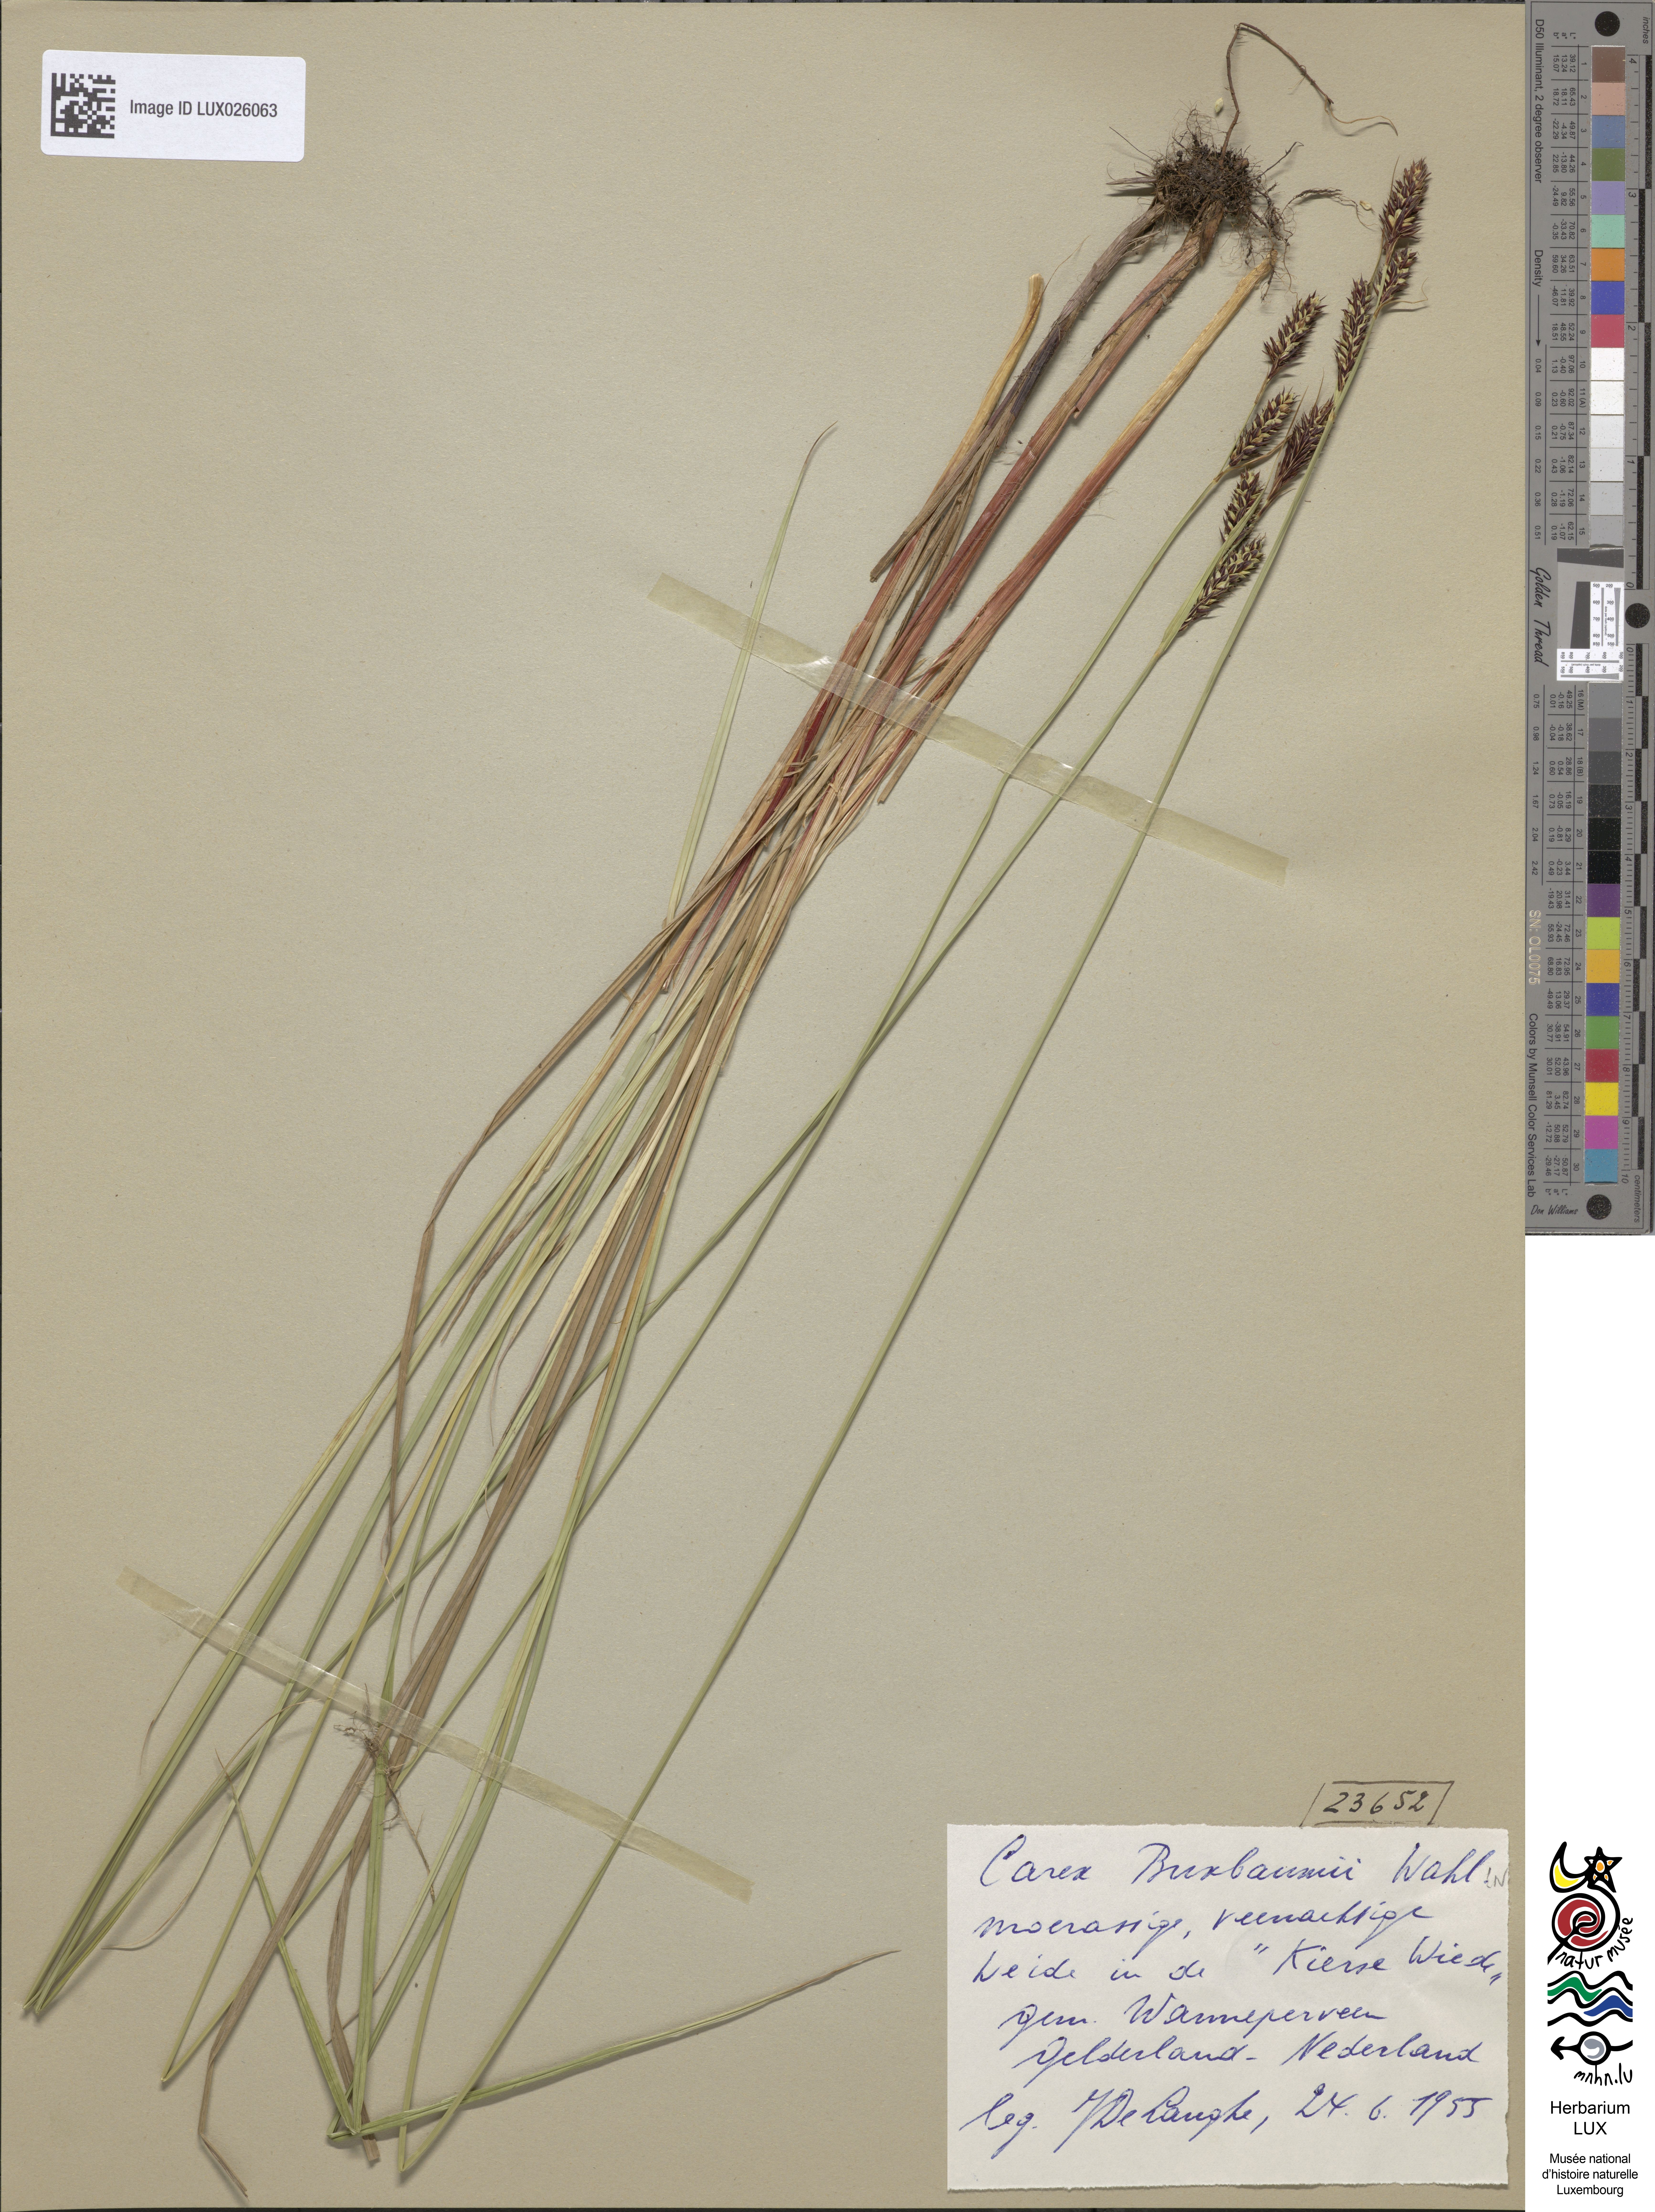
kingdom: Plantae
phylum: Tracheophyta
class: Liliopsida
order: Poales
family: Cyperaceae
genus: Carex
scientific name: Carex buxbaumii
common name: Club sedge
